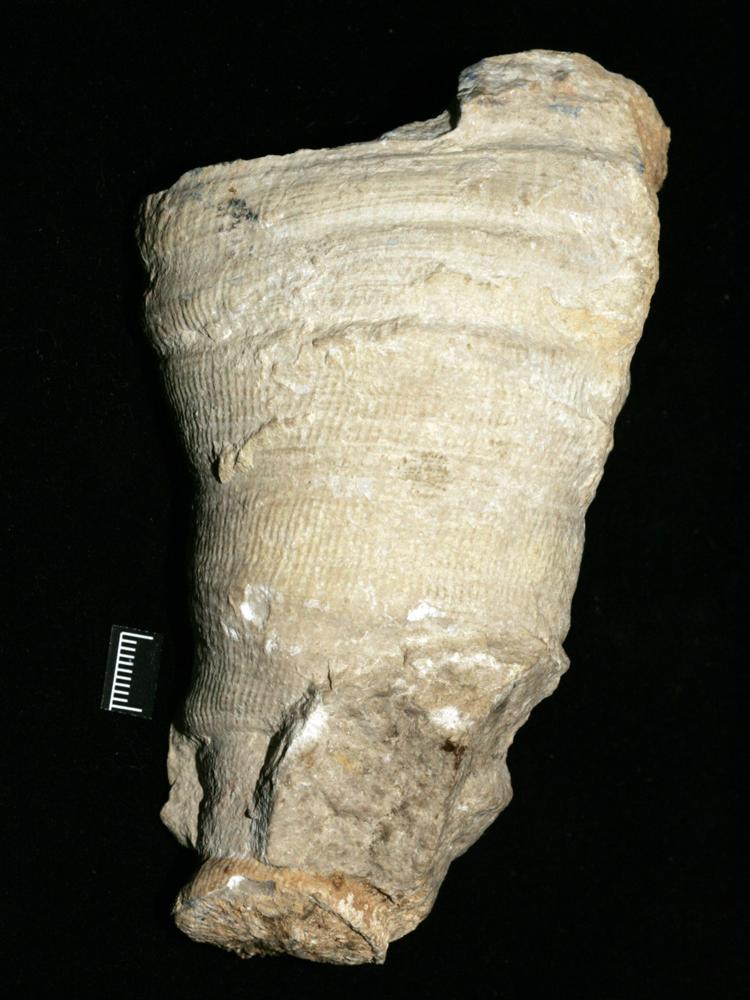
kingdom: Animalia
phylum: Cnidaria
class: Anthozoa
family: Streptelasmatidae
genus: Grewingkia
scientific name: Grewingkia
